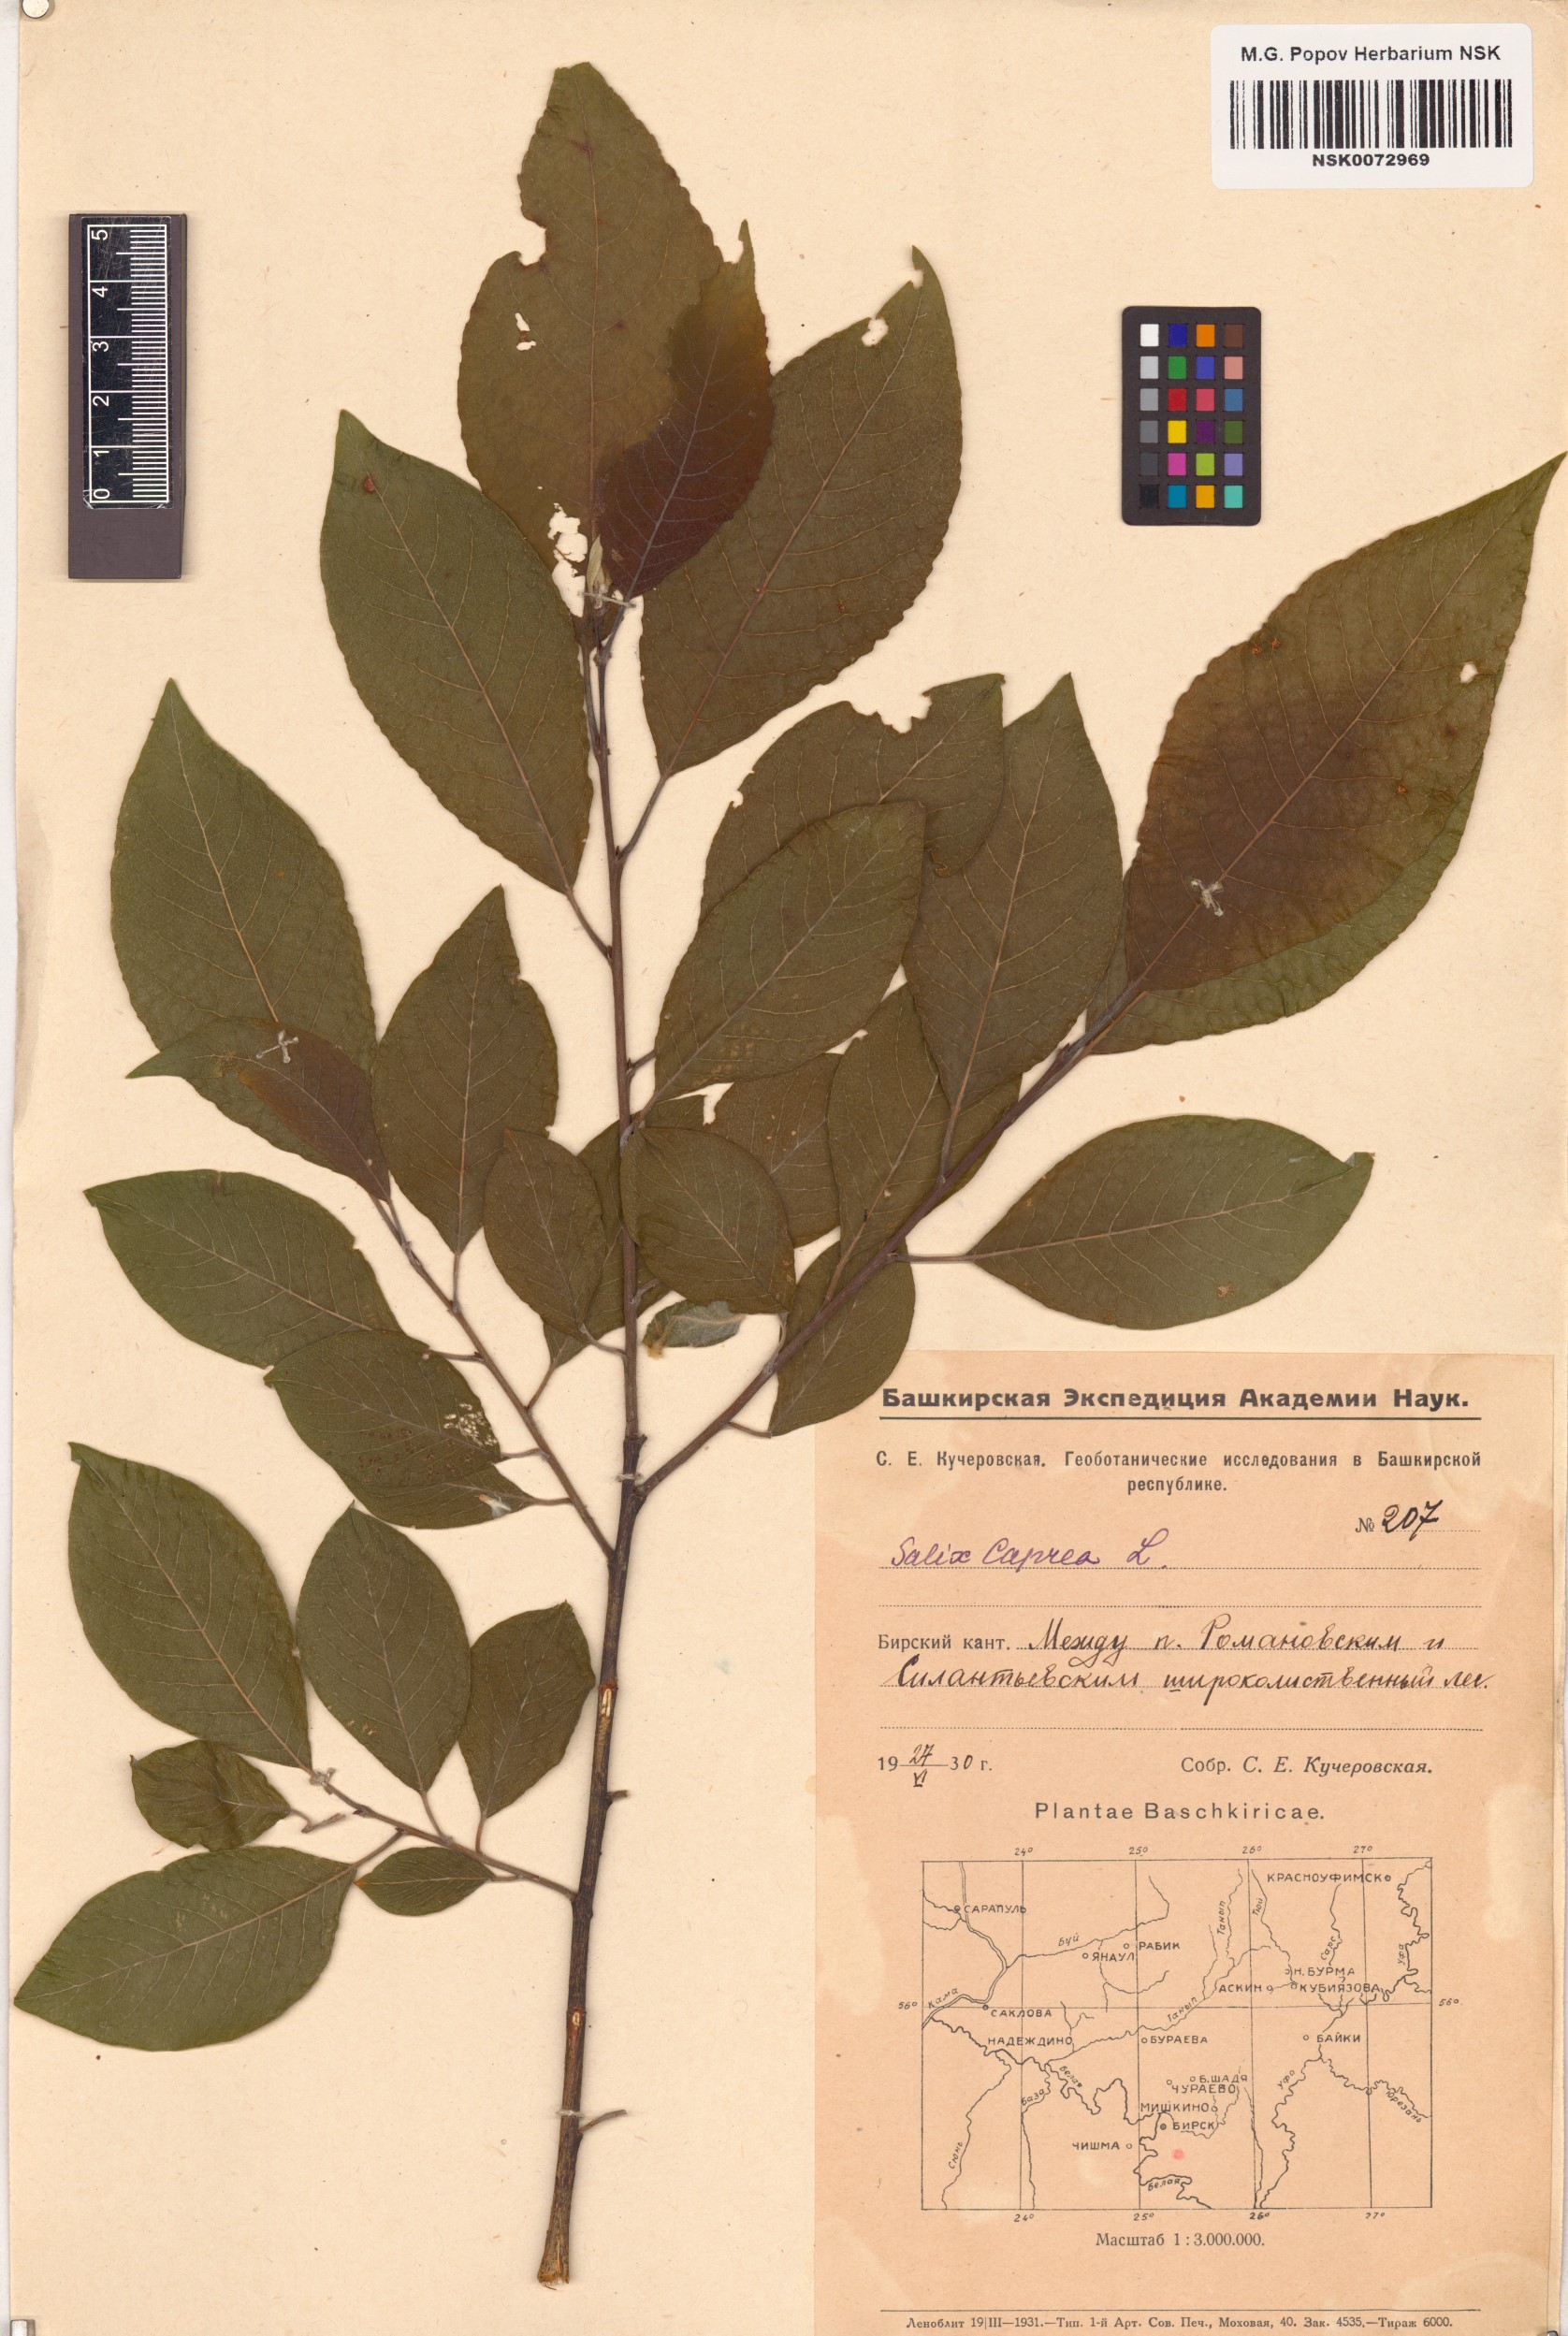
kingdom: Plantae
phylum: Tracheophyta
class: Magnoliopsida
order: Malpighiales
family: Salicaceae
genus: Salix
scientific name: Salix caprea
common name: Goat willow
